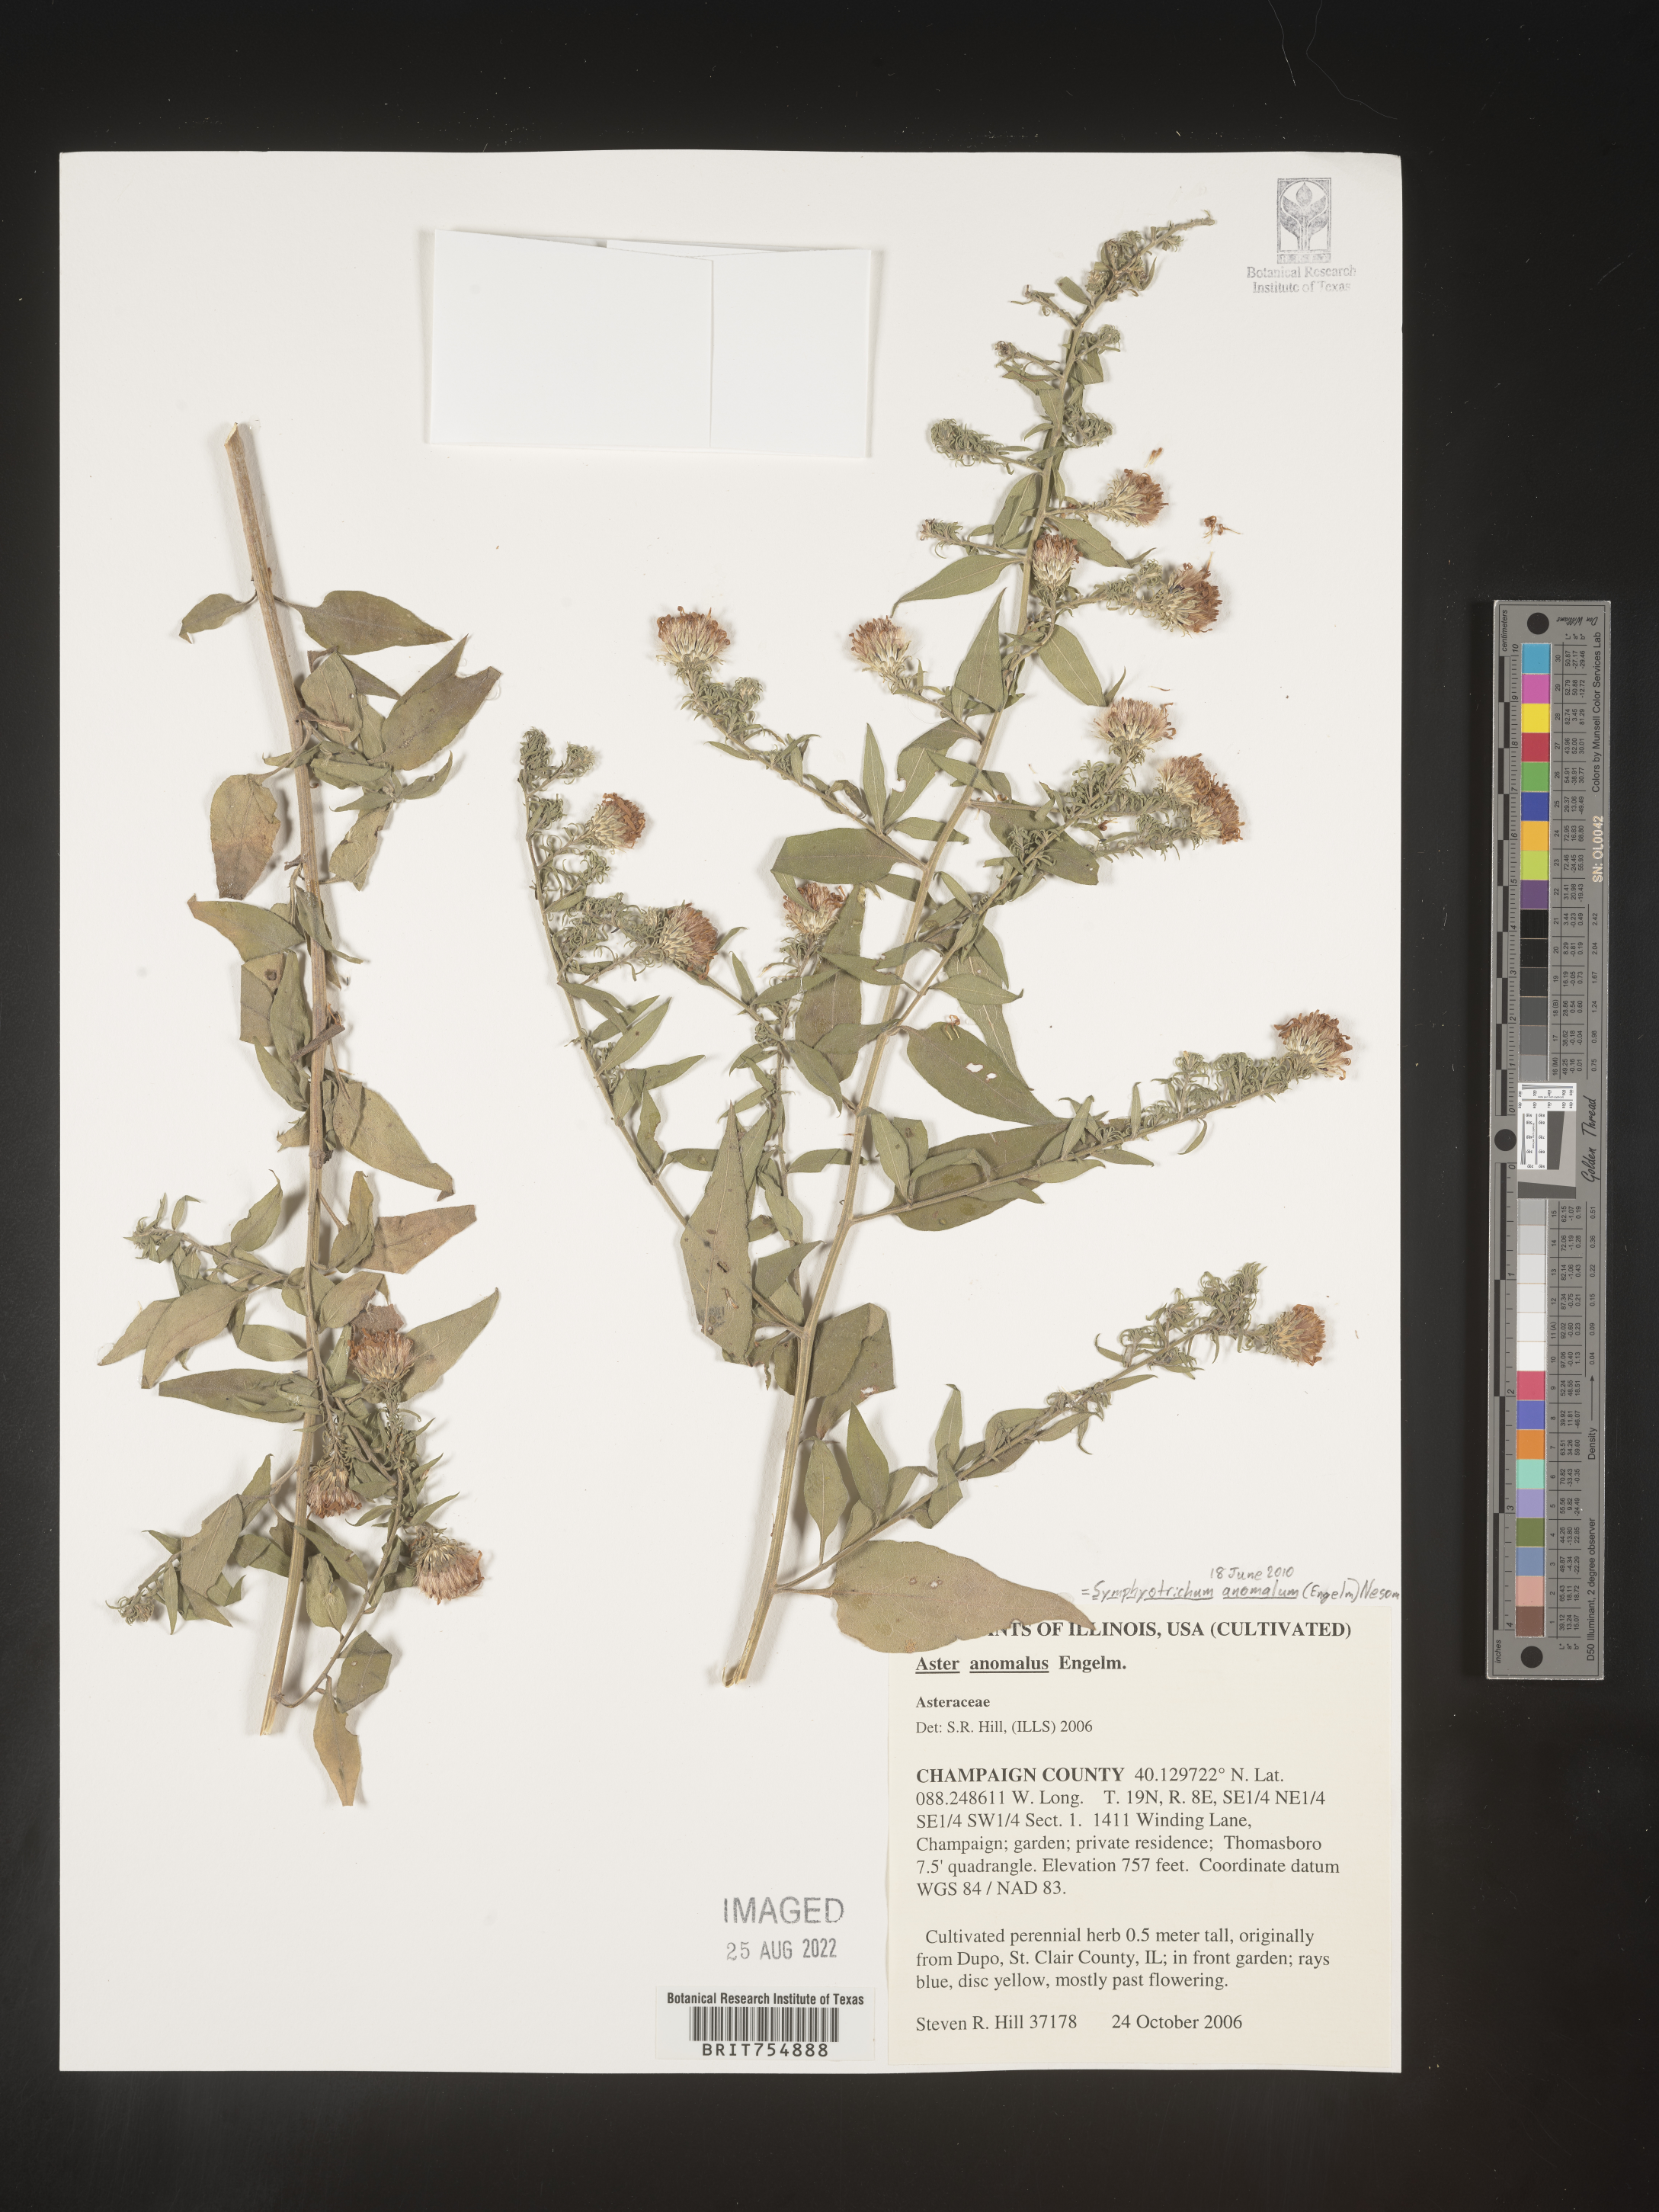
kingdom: Plantae
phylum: Tracheophyta
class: Magnoliopsida
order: Asterales
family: Asteraceae
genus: Symphyotrichum
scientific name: Symphyotrichum
